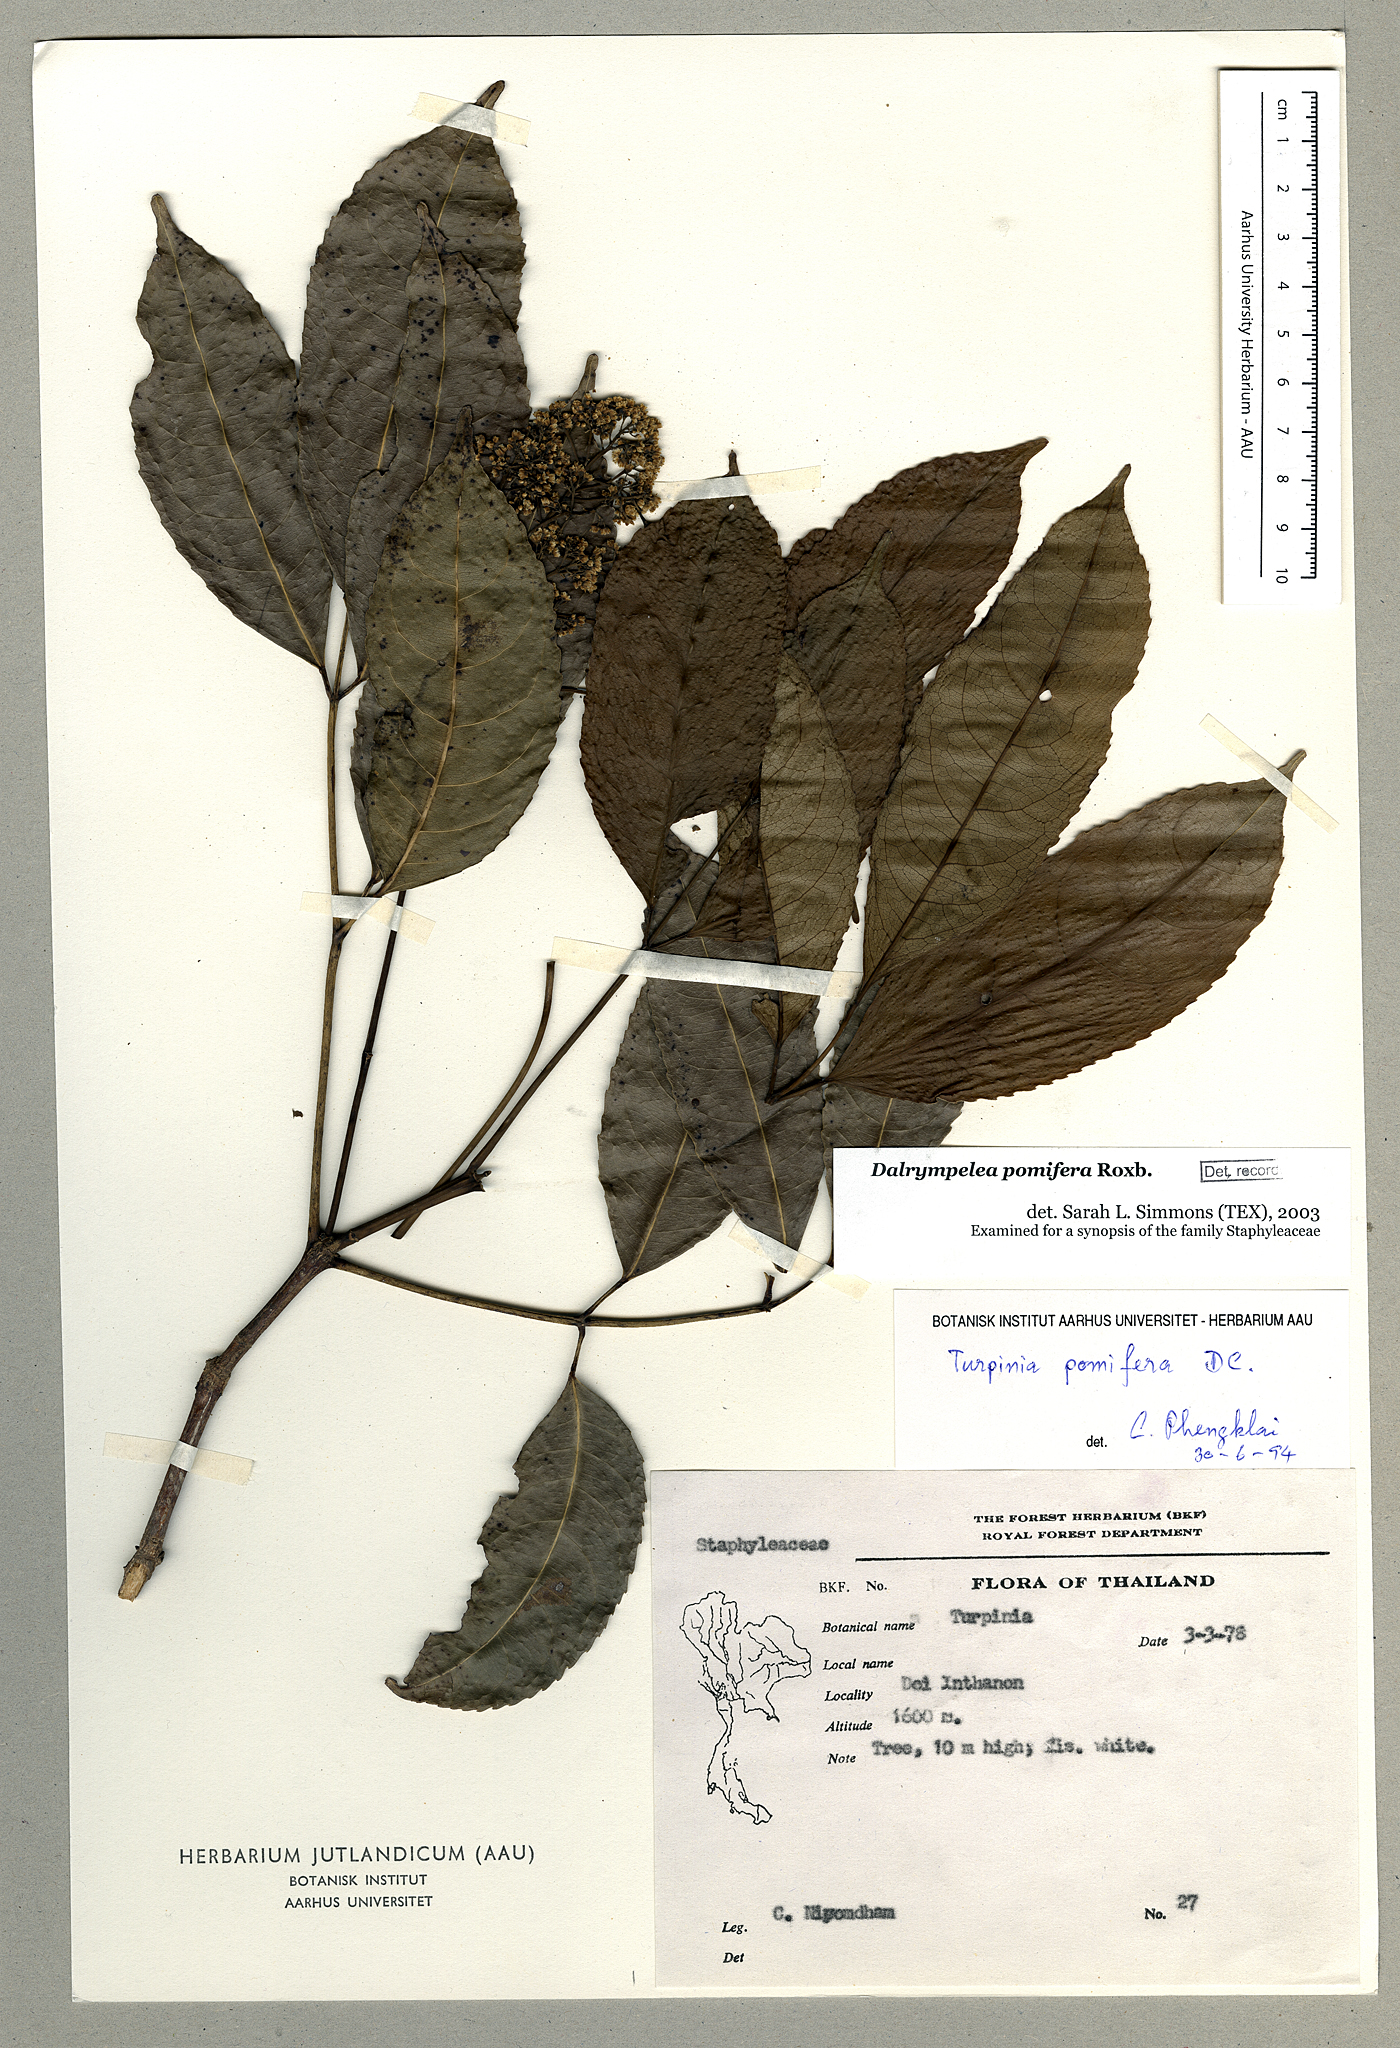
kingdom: Plantae
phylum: Tracheophyta
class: Magnoliopsida
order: Crossosomatales
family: Staphyleaceae
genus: Turpinia
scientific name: Turpinia cochinchinensis
